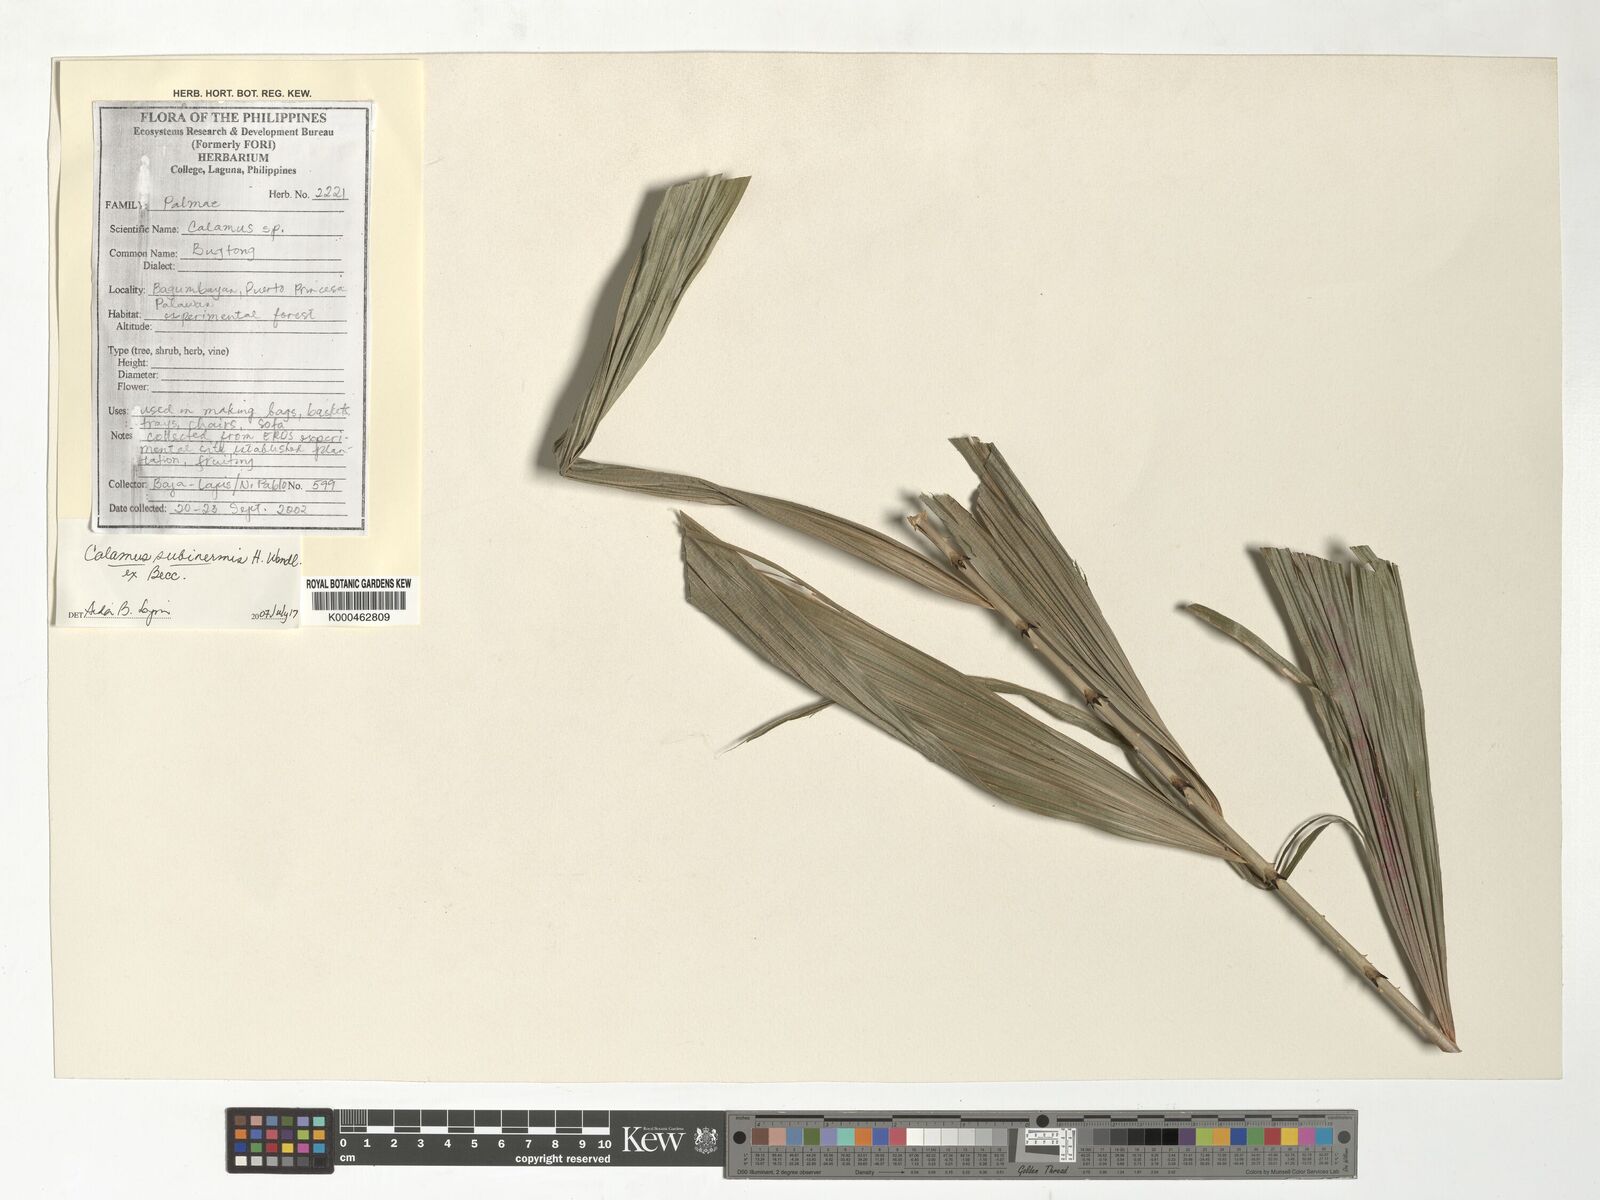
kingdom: Plantae
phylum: Tracheophyta
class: Liliopsida
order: Arecales
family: Arecaceae
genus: Calamus
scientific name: Calamus moseleyanus
